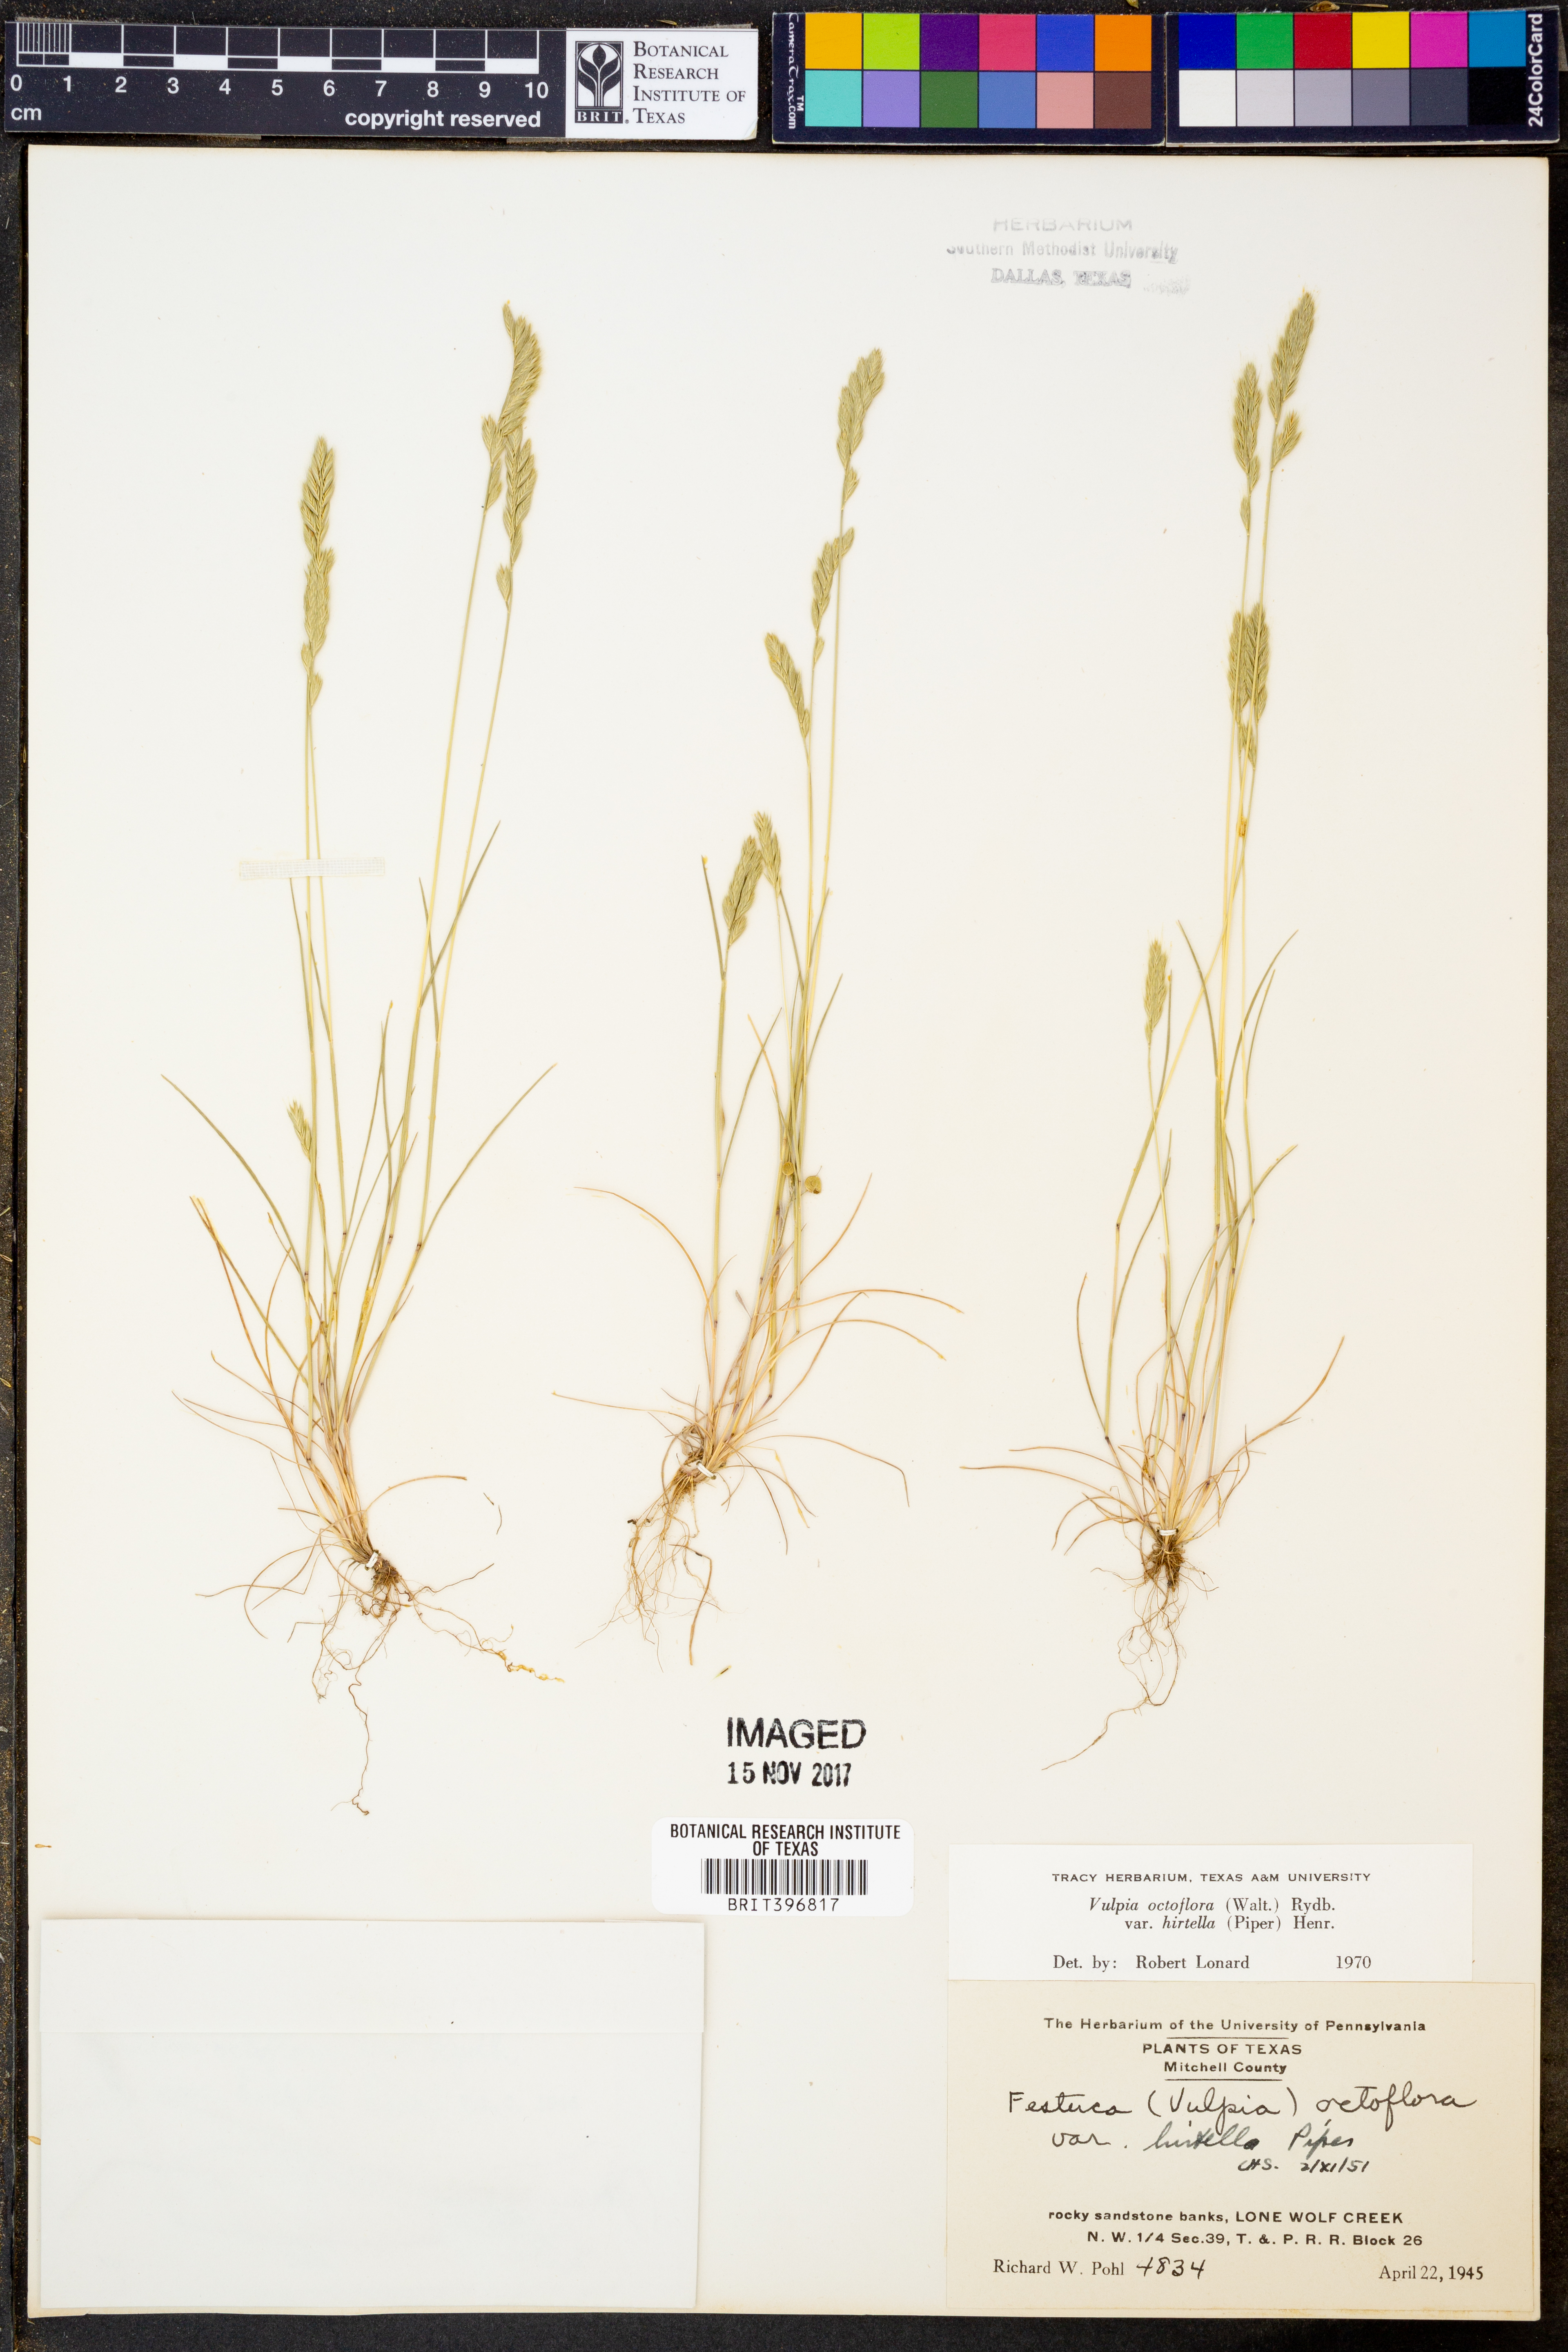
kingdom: Plantae
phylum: Tracheophyta
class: Liliopsida
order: Poales
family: Poaceae
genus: Festuca
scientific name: Festuca octoflora
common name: Sixweeks grass
